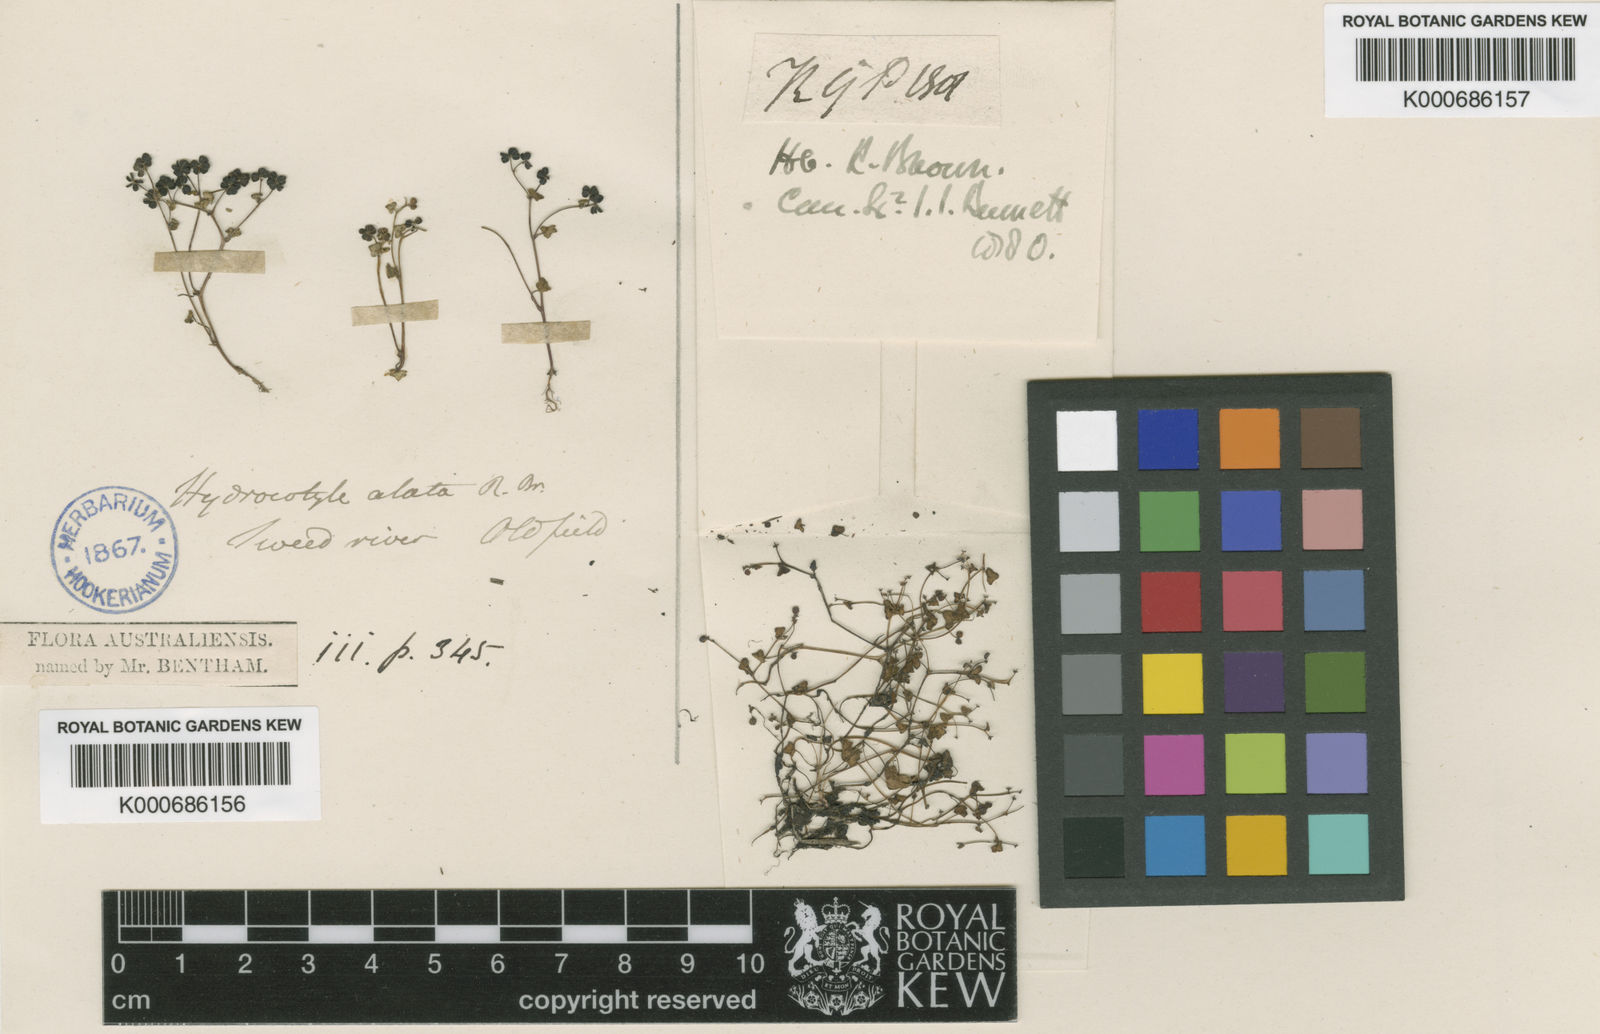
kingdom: Plantae
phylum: Tracheophyta
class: Magnoliopsida
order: Apiales
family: Araliaceae
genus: Hydrocotyle
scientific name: Hydrocotyle alata
